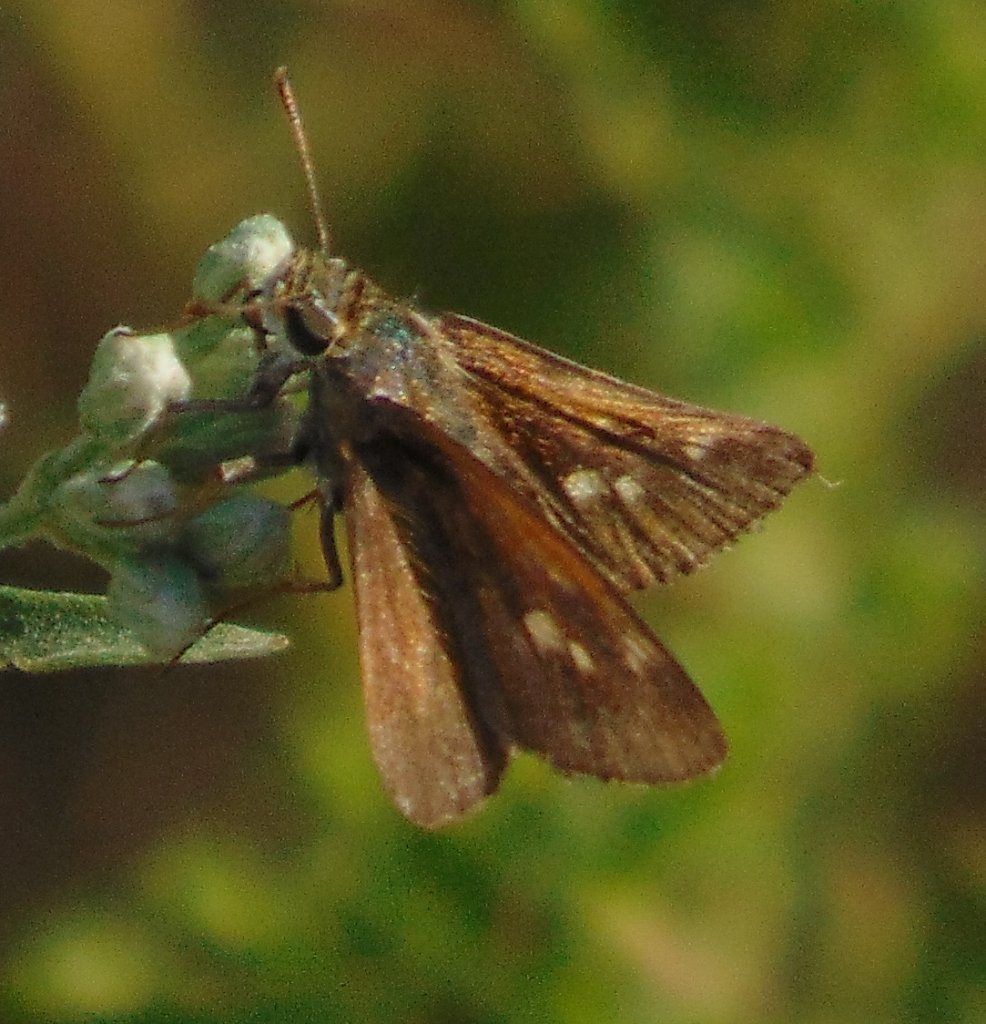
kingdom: Animalia
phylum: Arthropoda
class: Insecta
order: Lepidoptera
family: Hesperiidae
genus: Polites
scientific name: Polites themistocles
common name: Tawny-edged Skipper
